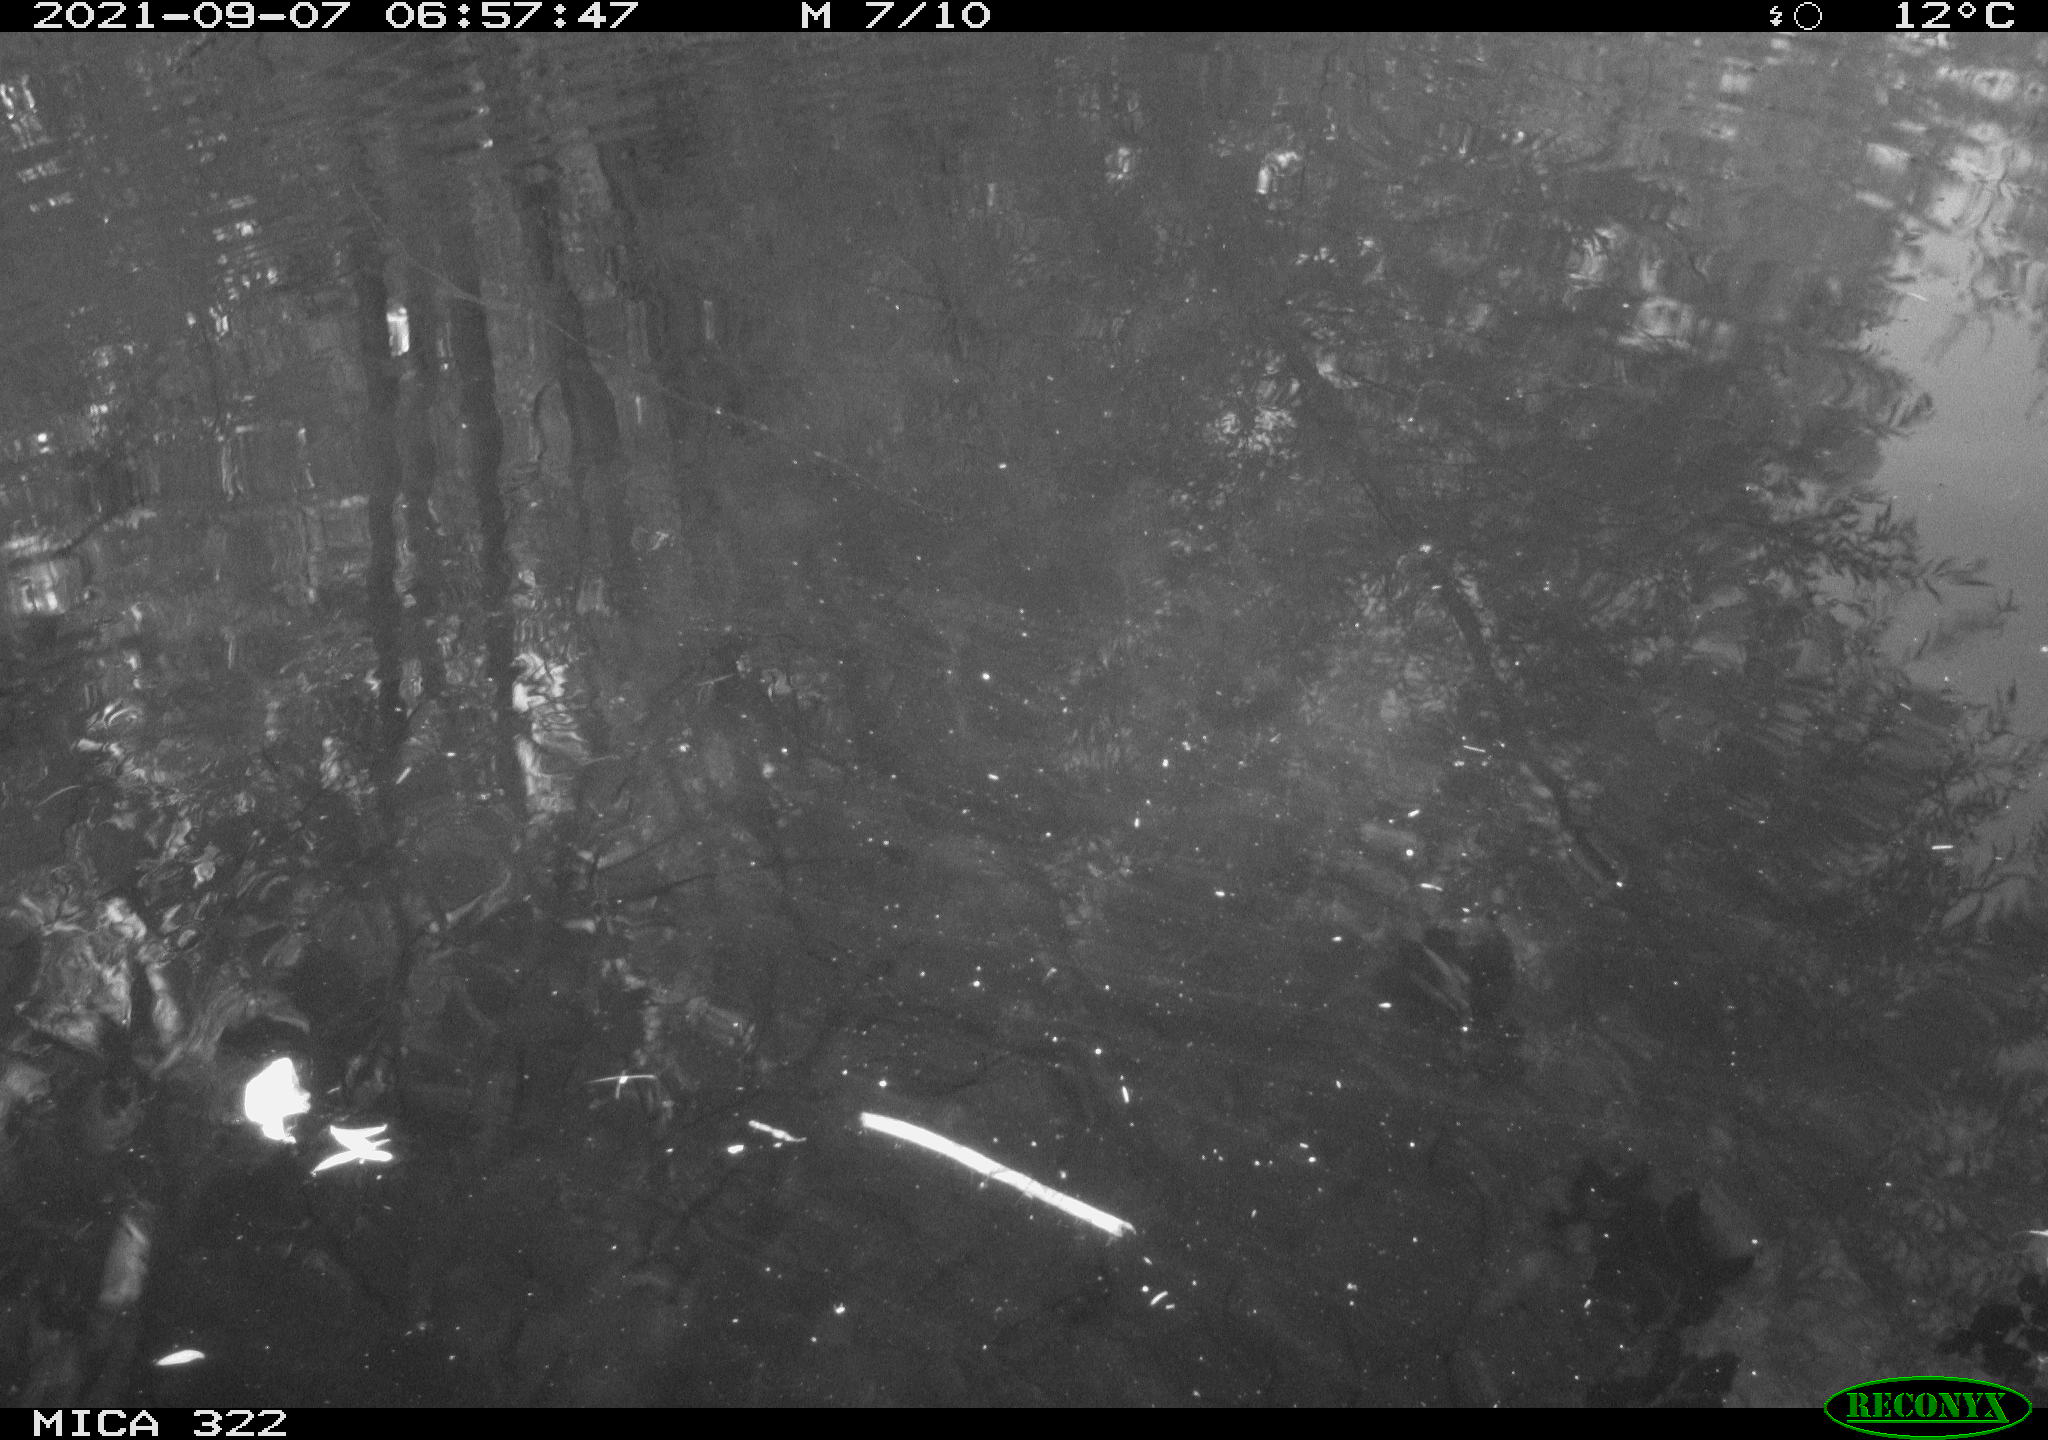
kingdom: Animalia
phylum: Chordata
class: Aves
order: Gruiformes
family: Rallidae
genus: Gallinula
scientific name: Gallinula chloropus
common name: Common moorhen
